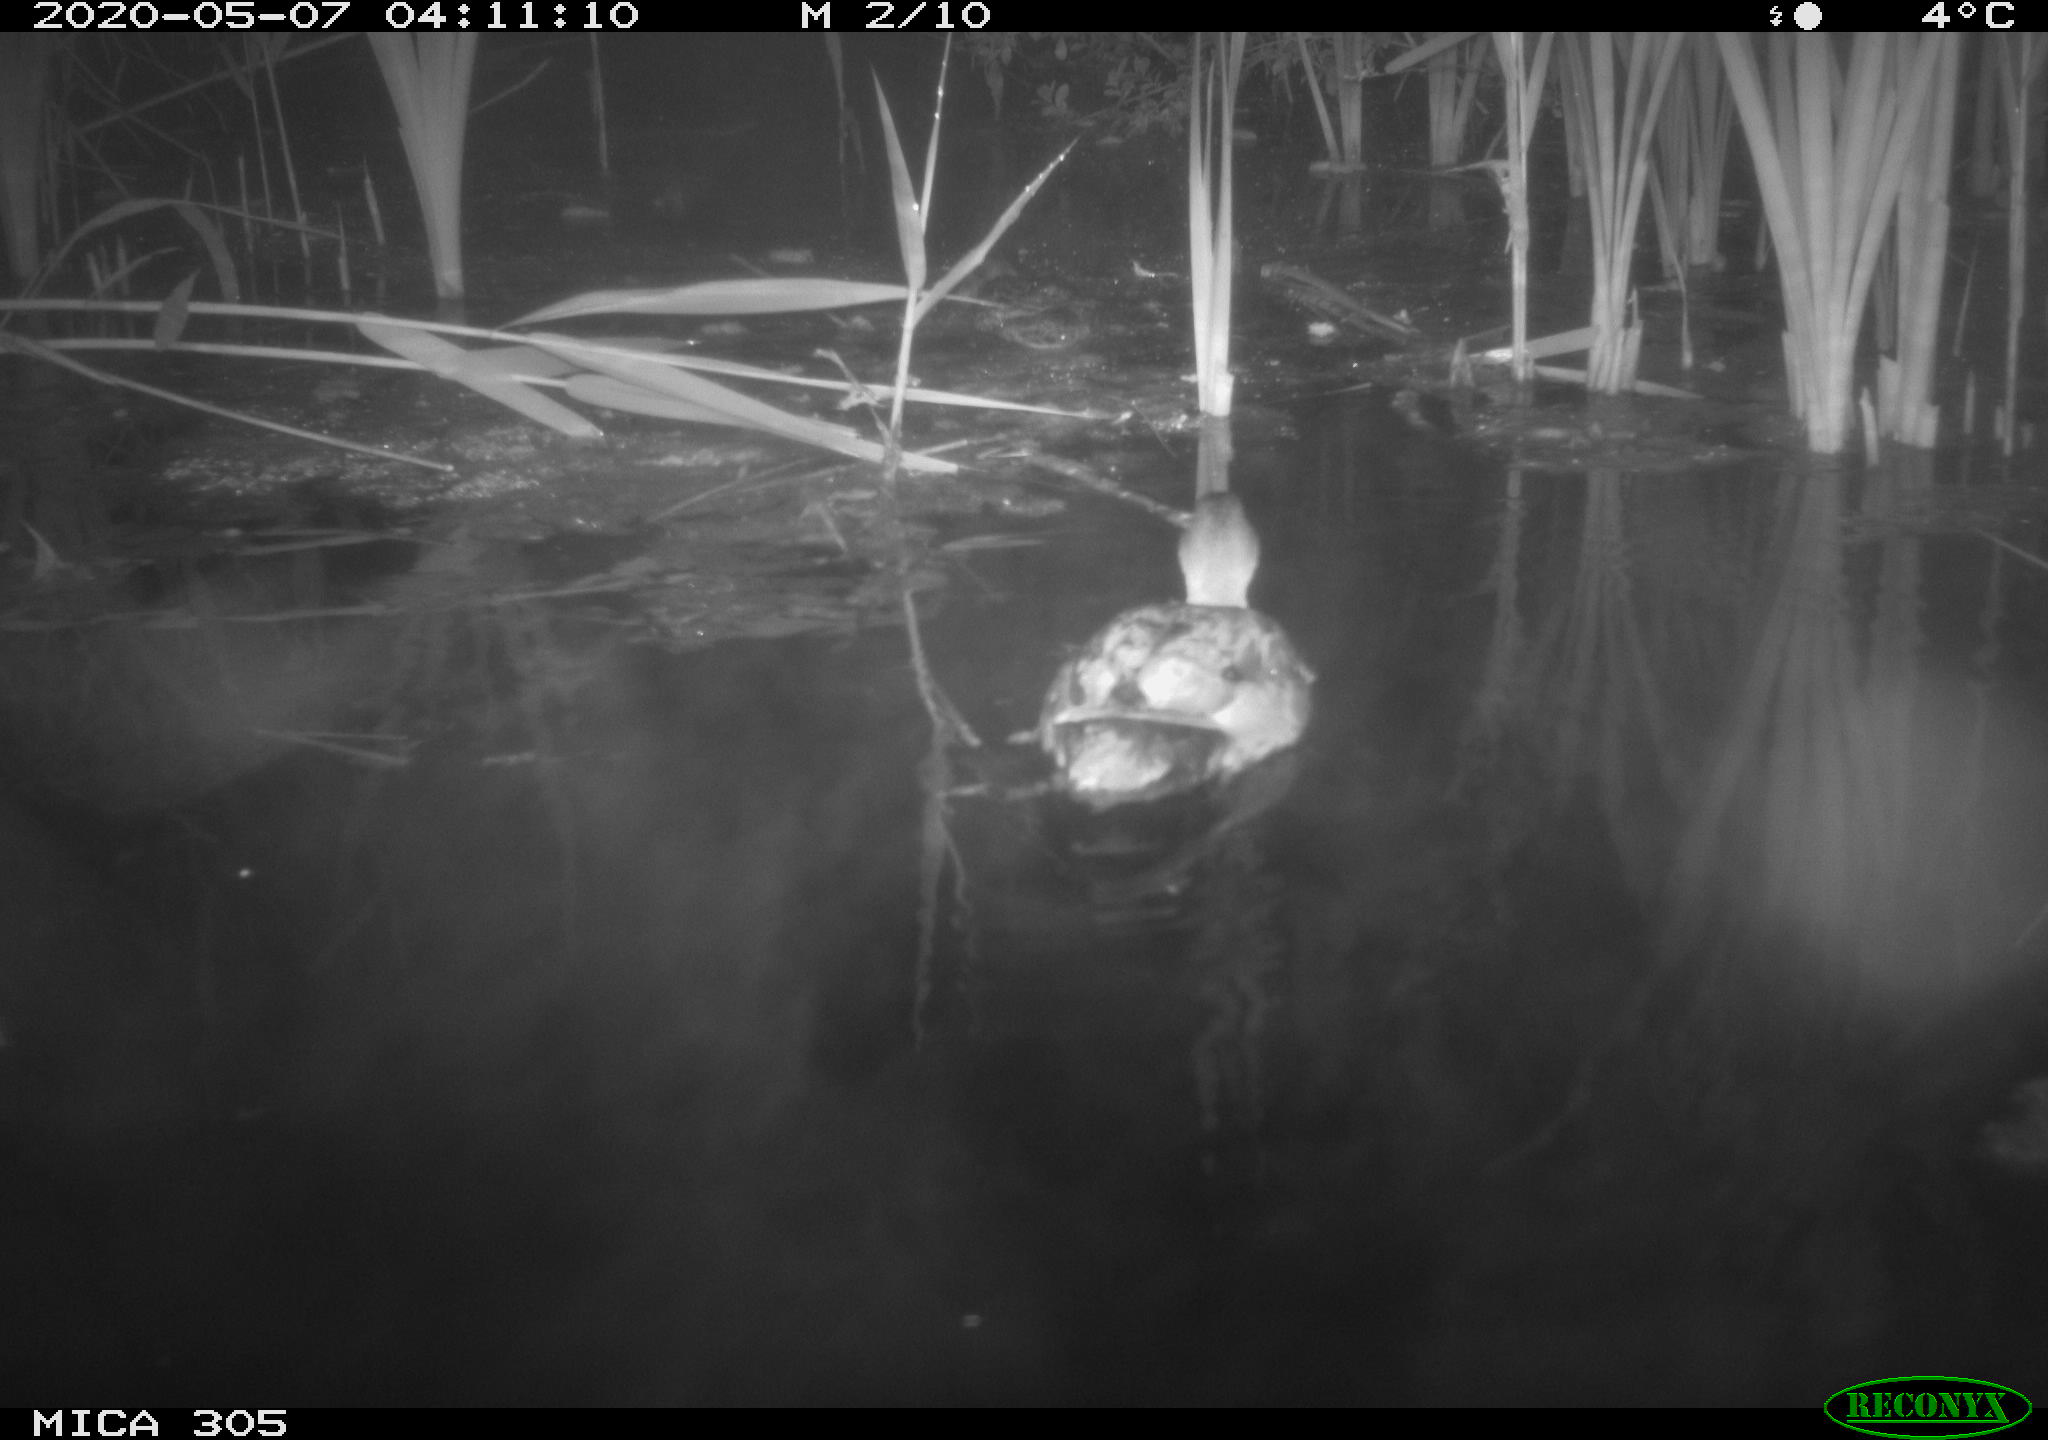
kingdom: Animalia
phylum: Chordata
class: Aves
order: Anseriformes
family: Anatidae
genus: Mareca
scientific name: Mareca strepera
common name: Gadwall
